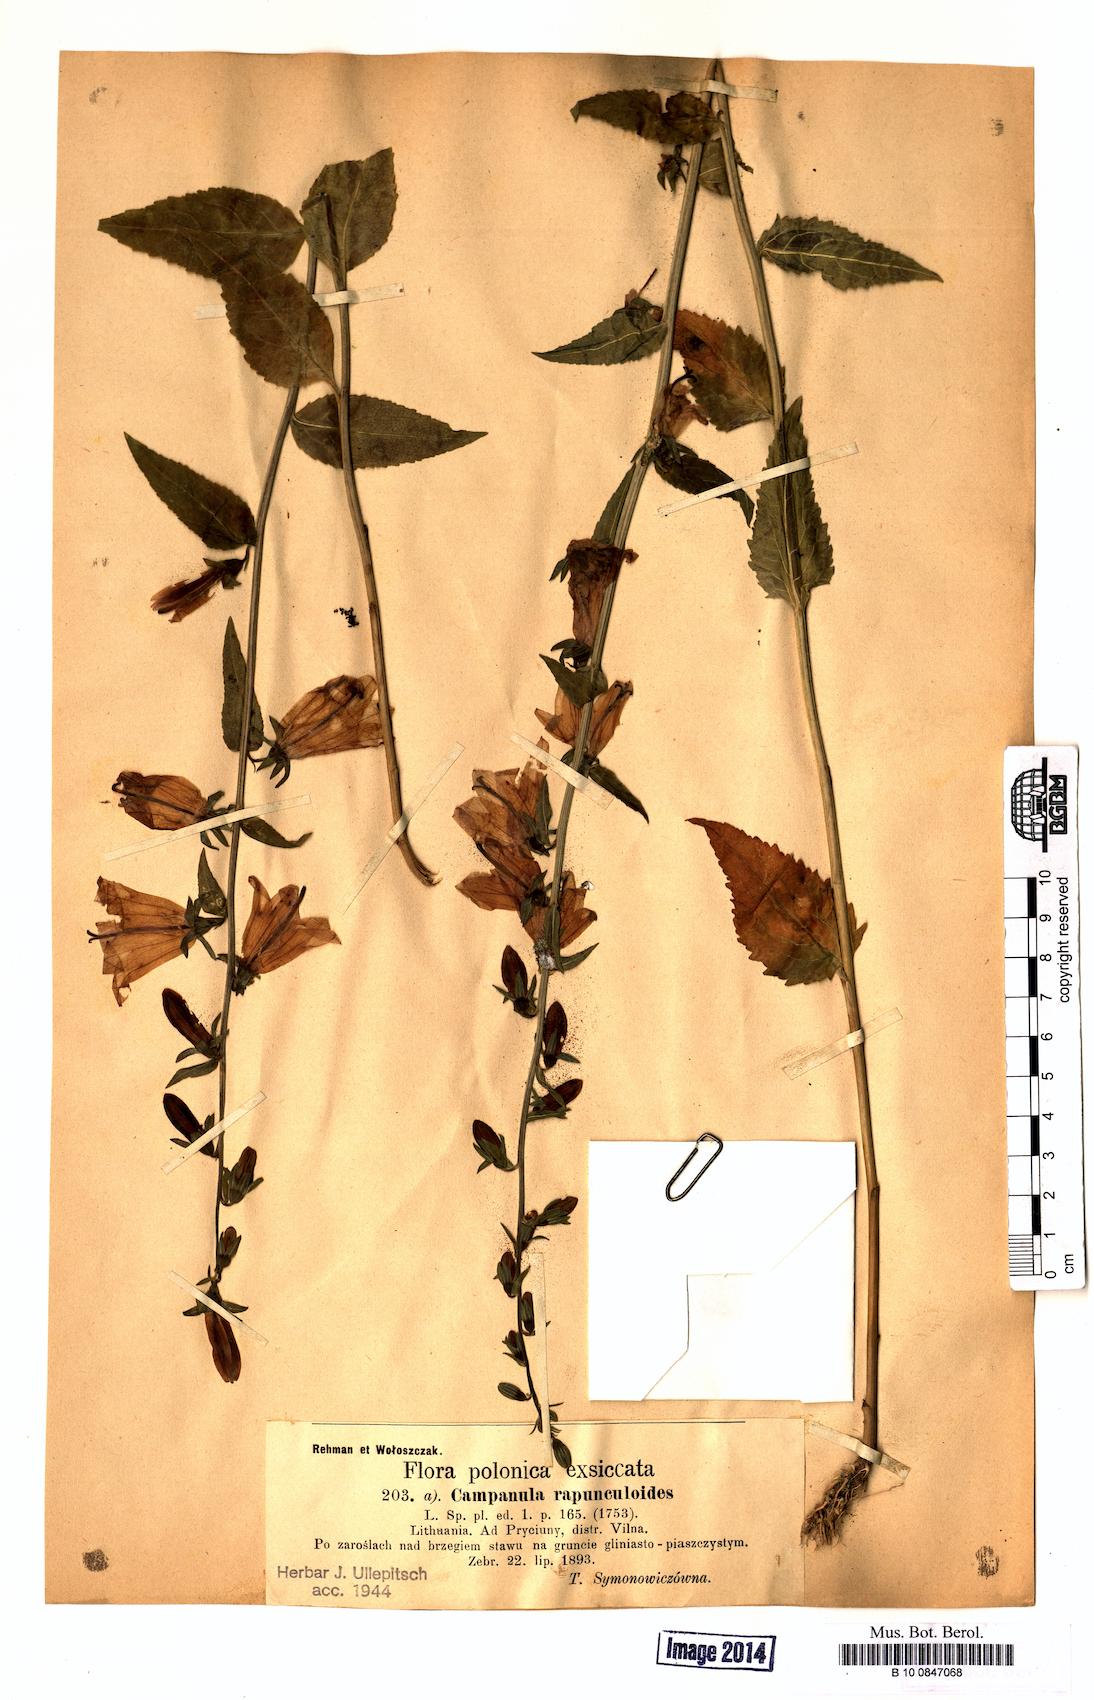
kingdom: Plantae
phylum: Tracheophyta
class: Magnoliopsida
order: Asterales
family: Campanulaceae
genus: Campanula
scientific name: Campanula rapunculoides
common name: Creeping bellflower
